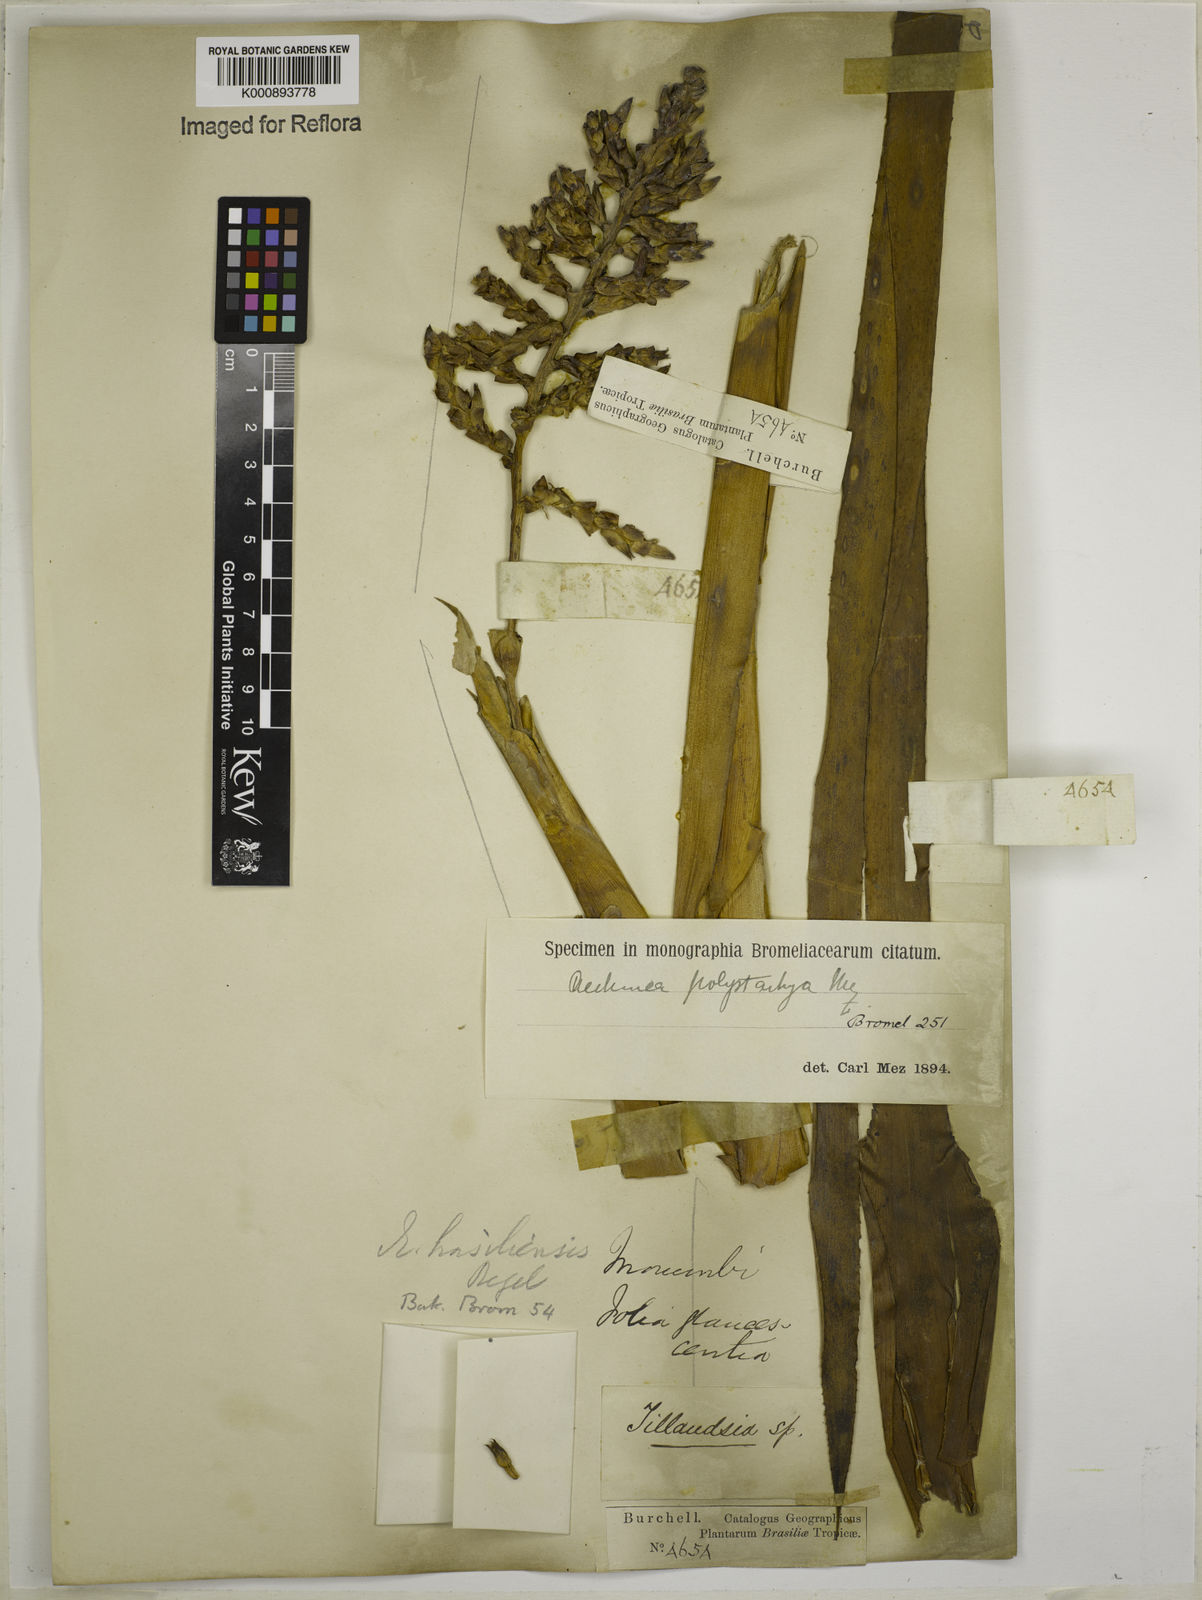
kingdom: Plantae
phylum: Tracheophyta
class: Liliopsida
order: Poales
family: Bromeliaceae
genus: Aechmea
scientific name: Aechmea distichantha
